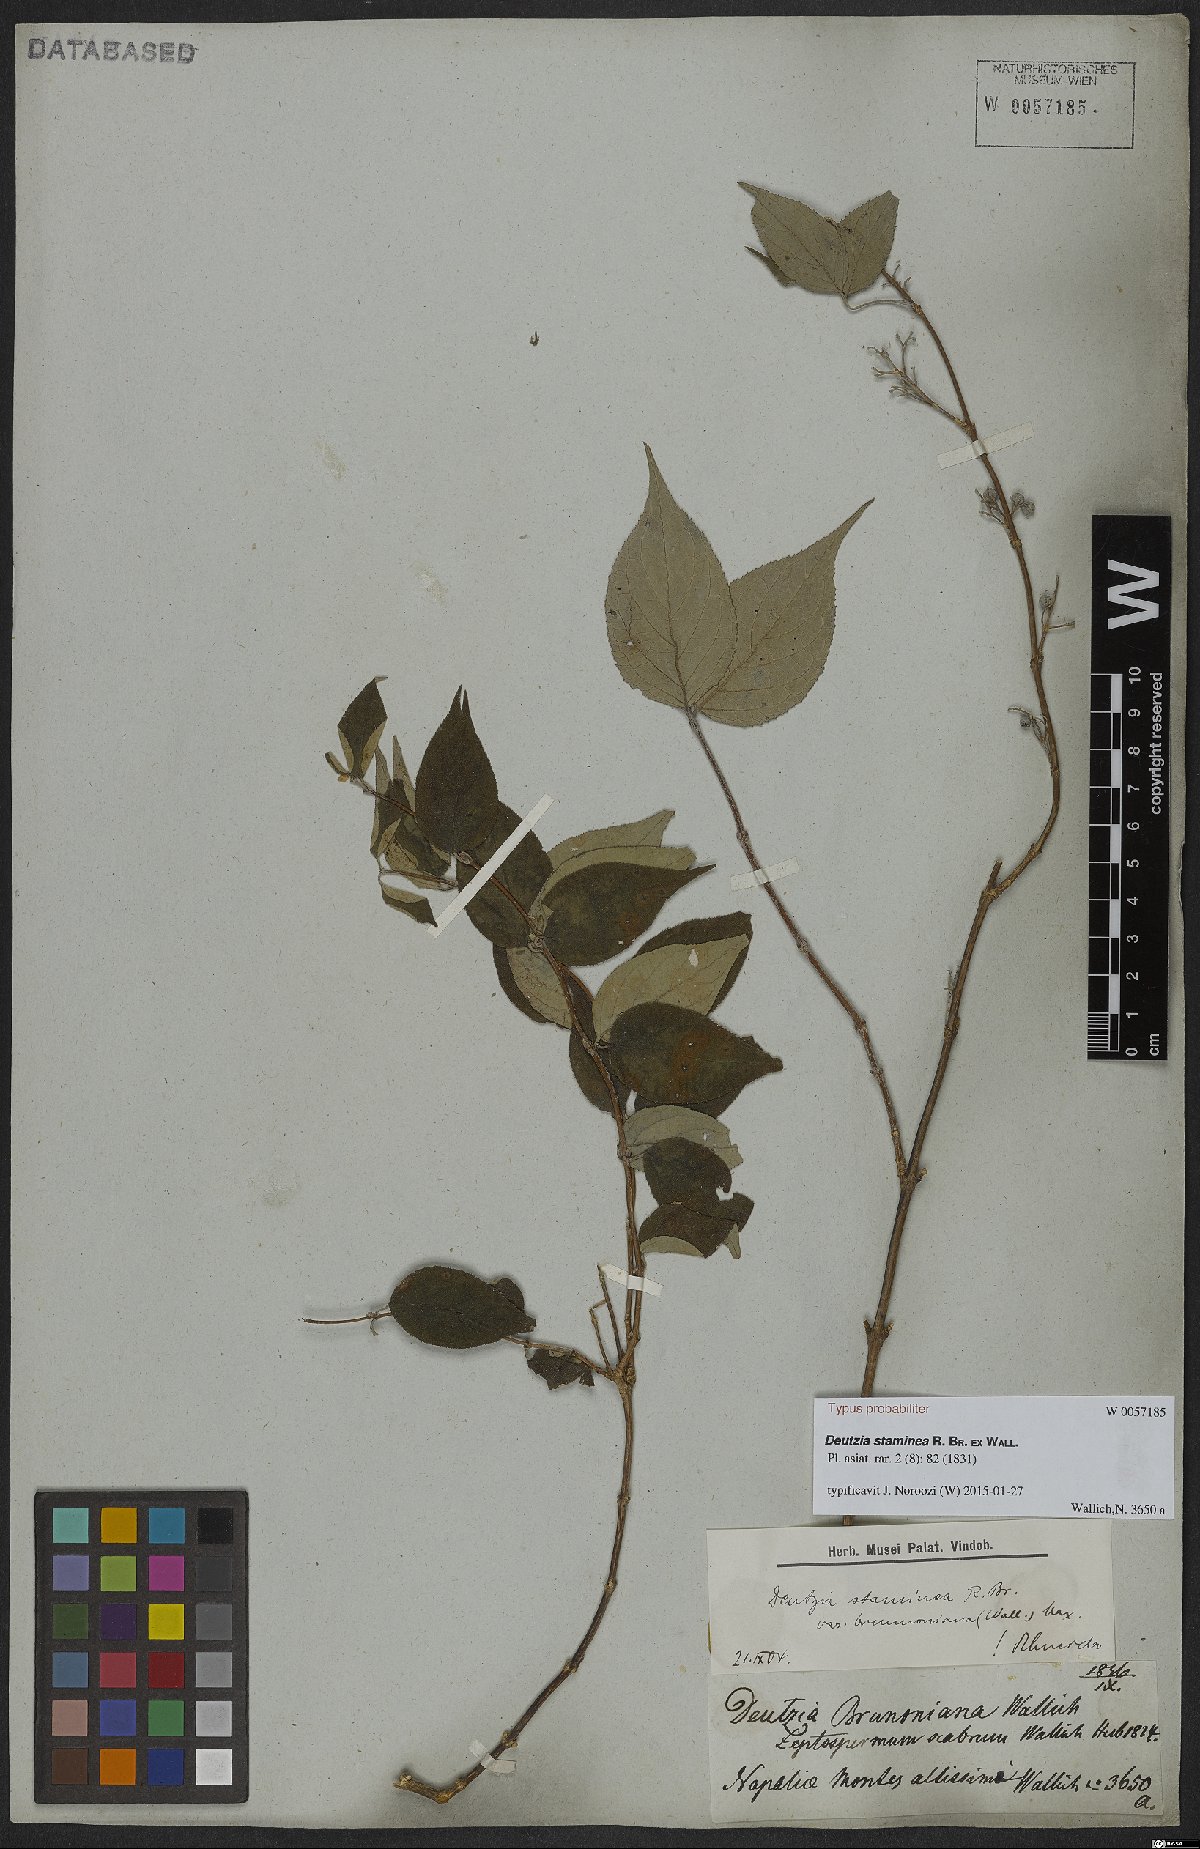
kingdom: Plantae
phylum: Tracheophyta
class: Magnoliopsida
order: Cornales
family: Hydrangeaceae
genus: Deutzia
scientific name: Deutzia staminea
